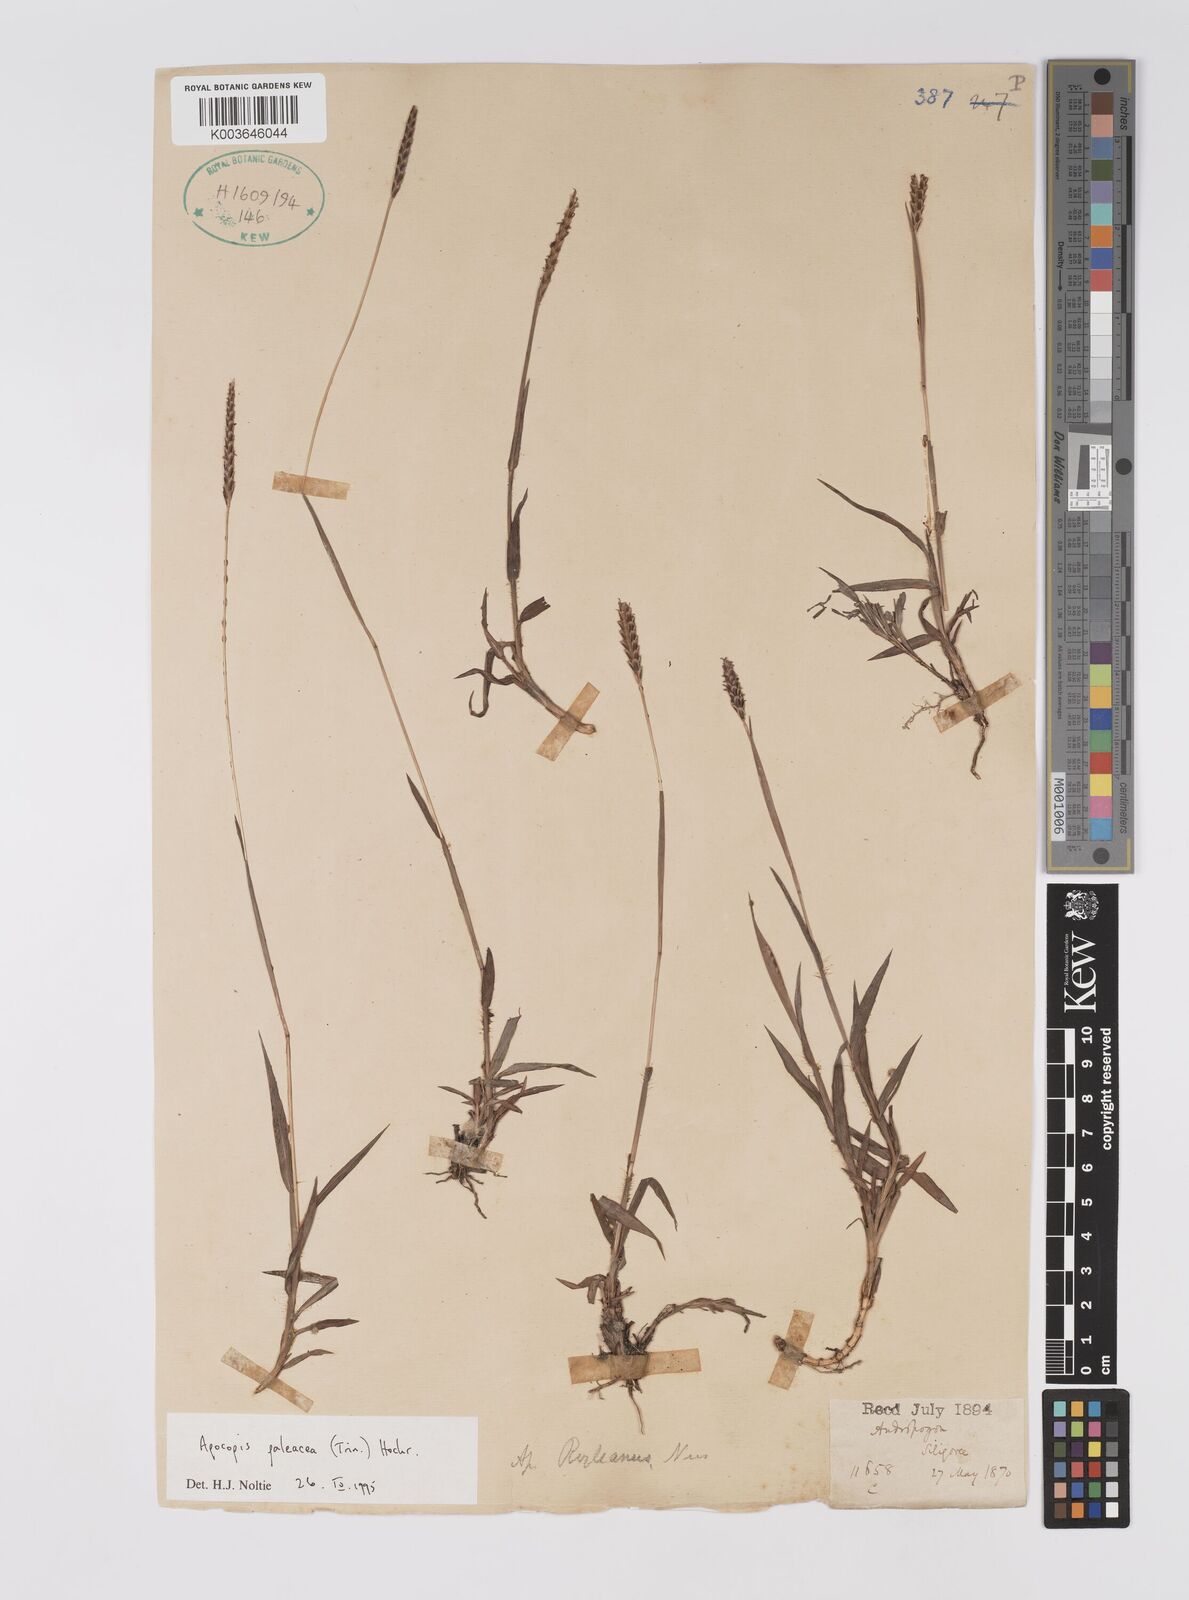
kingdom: Plantae
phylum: Tracheophyta
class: Liliopsida
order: Poales
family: Poaceae
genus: Apocopis
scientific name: Apocopis paleaceus
